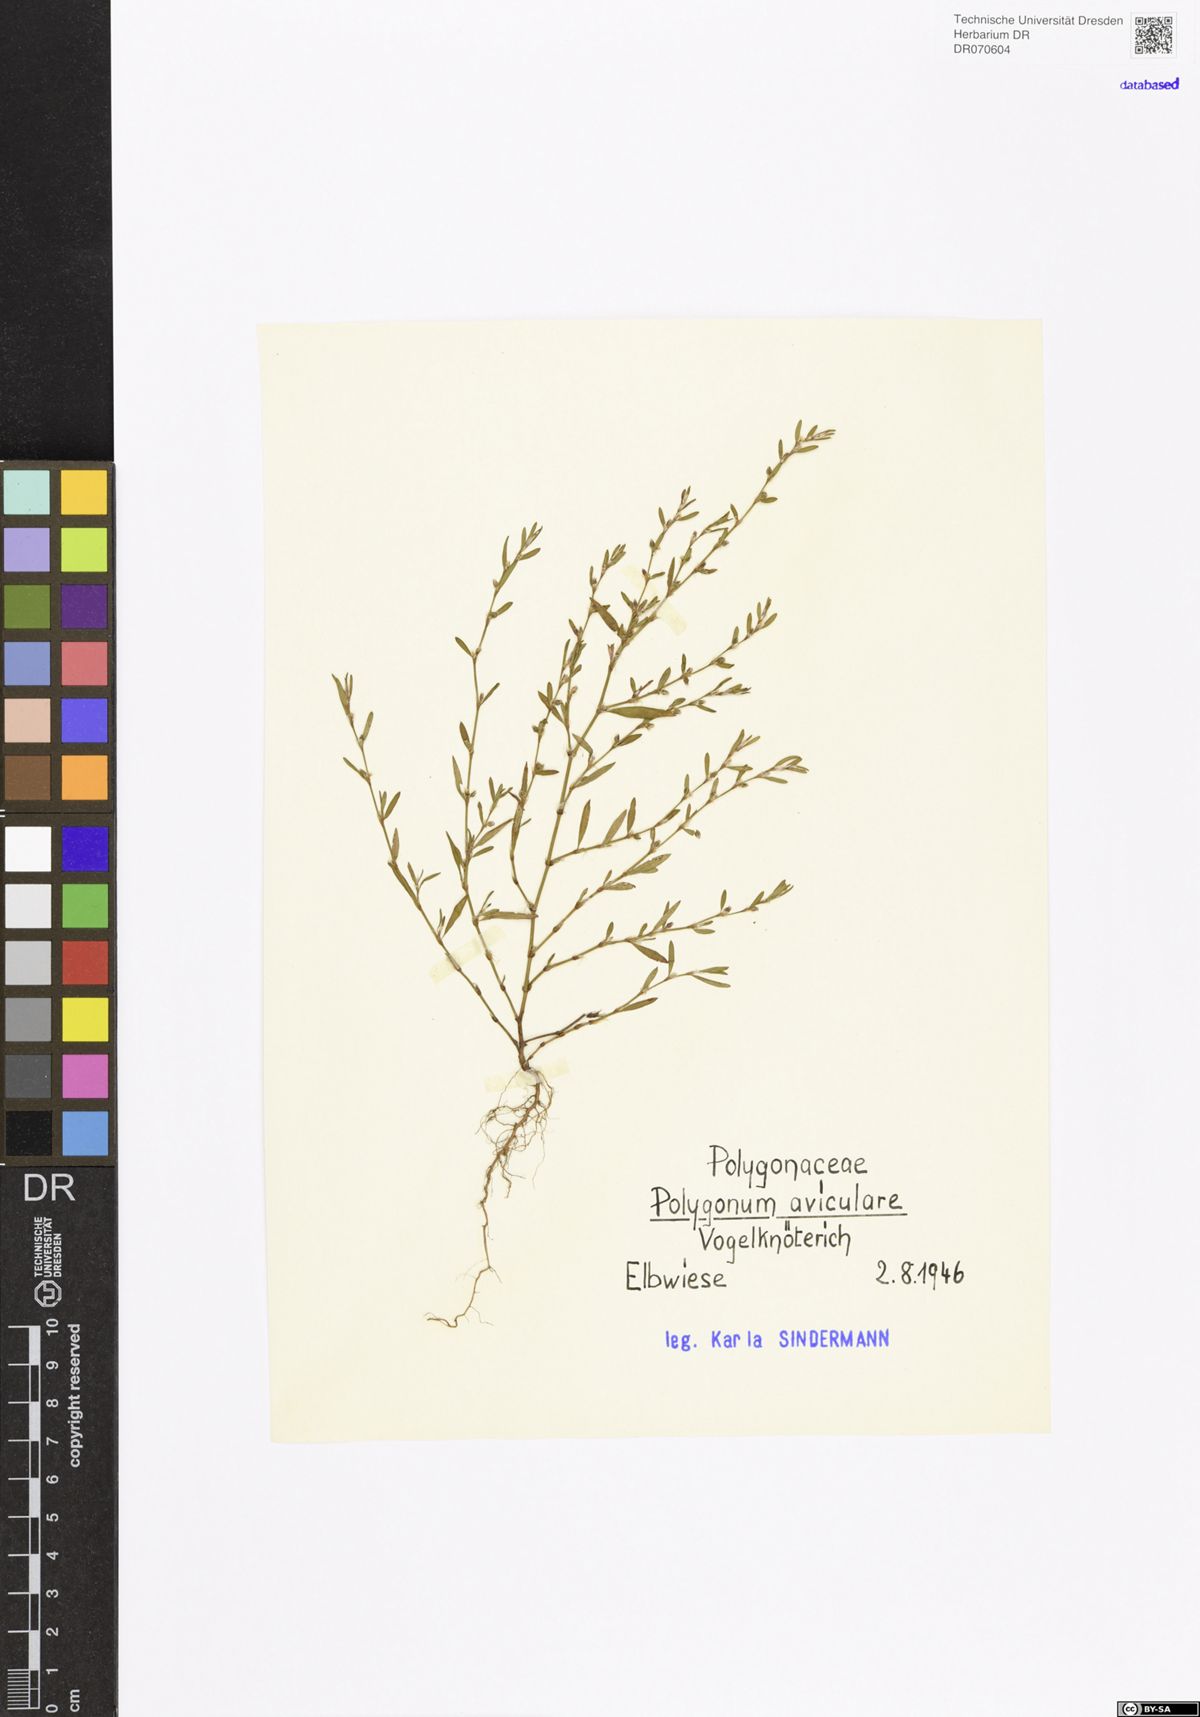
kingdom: Plantae
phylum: Tracheophyta
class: Magnoliopsida
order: Caryophyllales
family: Polygonaceae
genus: Polygonum
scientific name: Polygonum aviculare
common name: Prostrate knotweed
